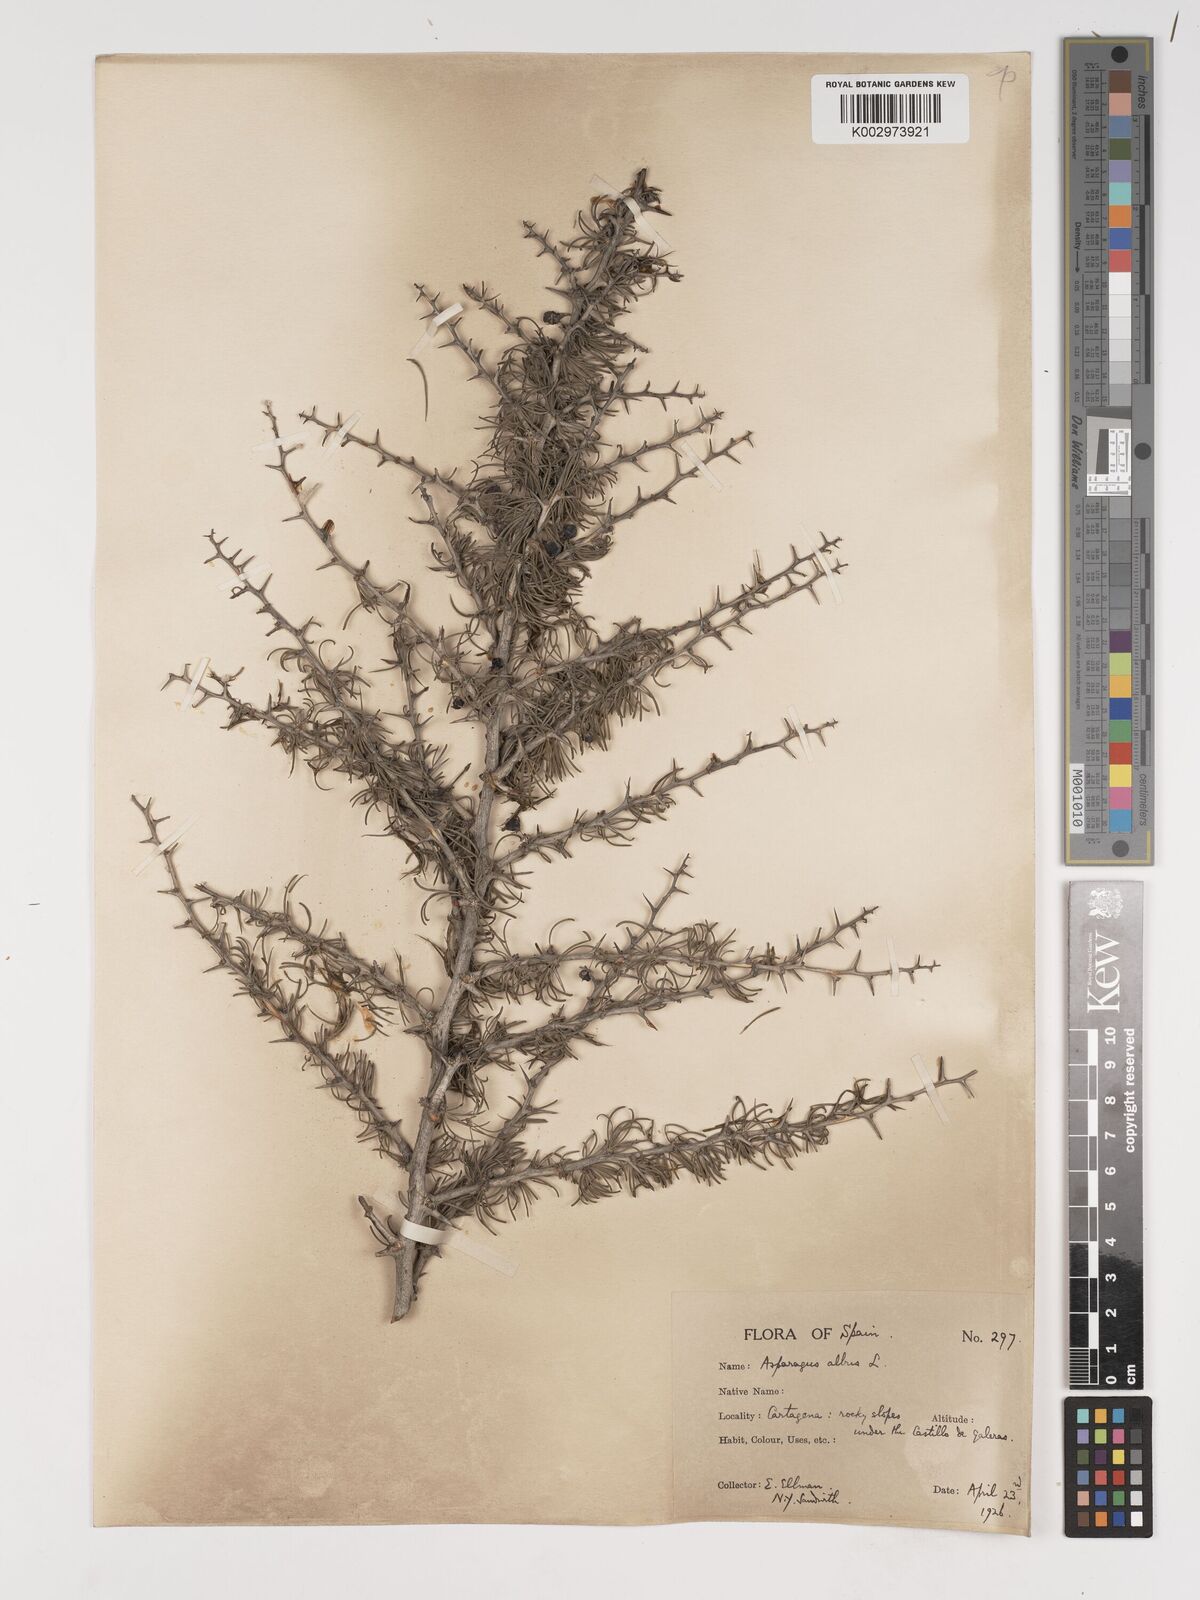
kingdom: Plantae
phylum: Tracheophyta
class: Liliopsida
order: Asparagales
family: Asparagaceae
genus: Asparagus
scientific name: Asparagus albus
